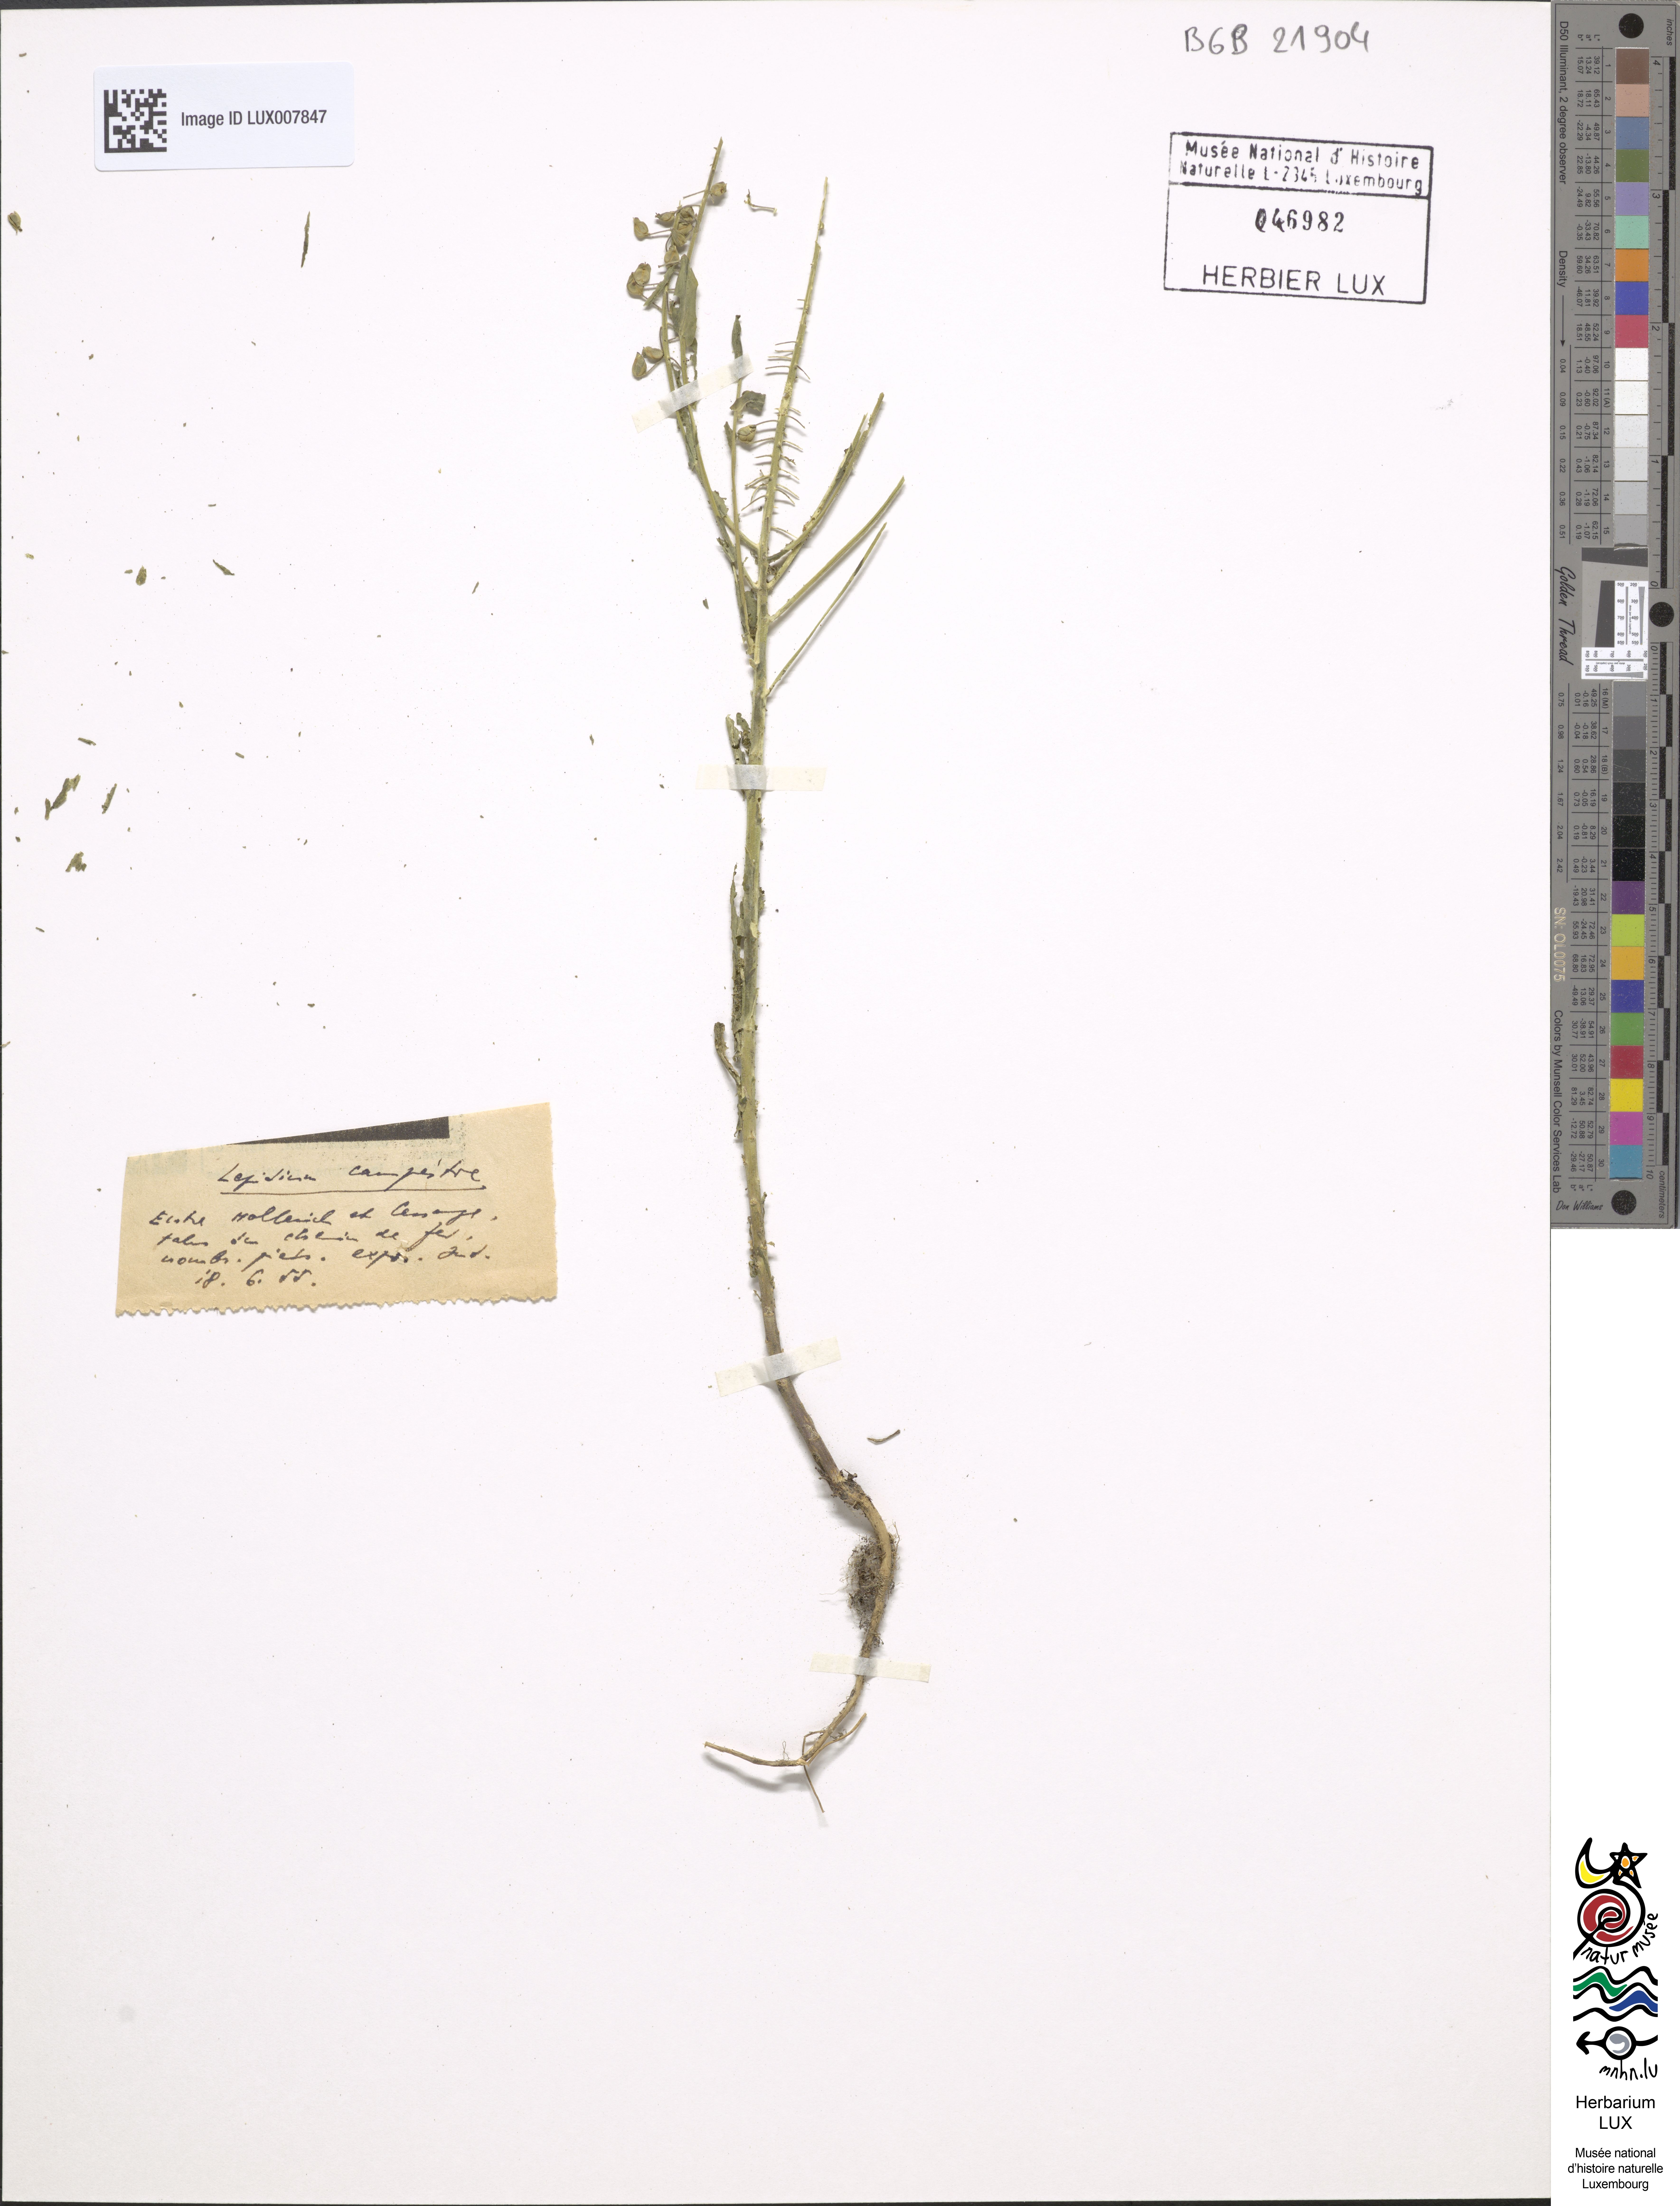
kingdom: Plantae
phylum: Tracheophyta
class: Magnoliopsida
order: Brassicales
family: Brassicaceae
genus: Lepidium
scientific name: Lepidium campestre
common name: Field pepperwort
